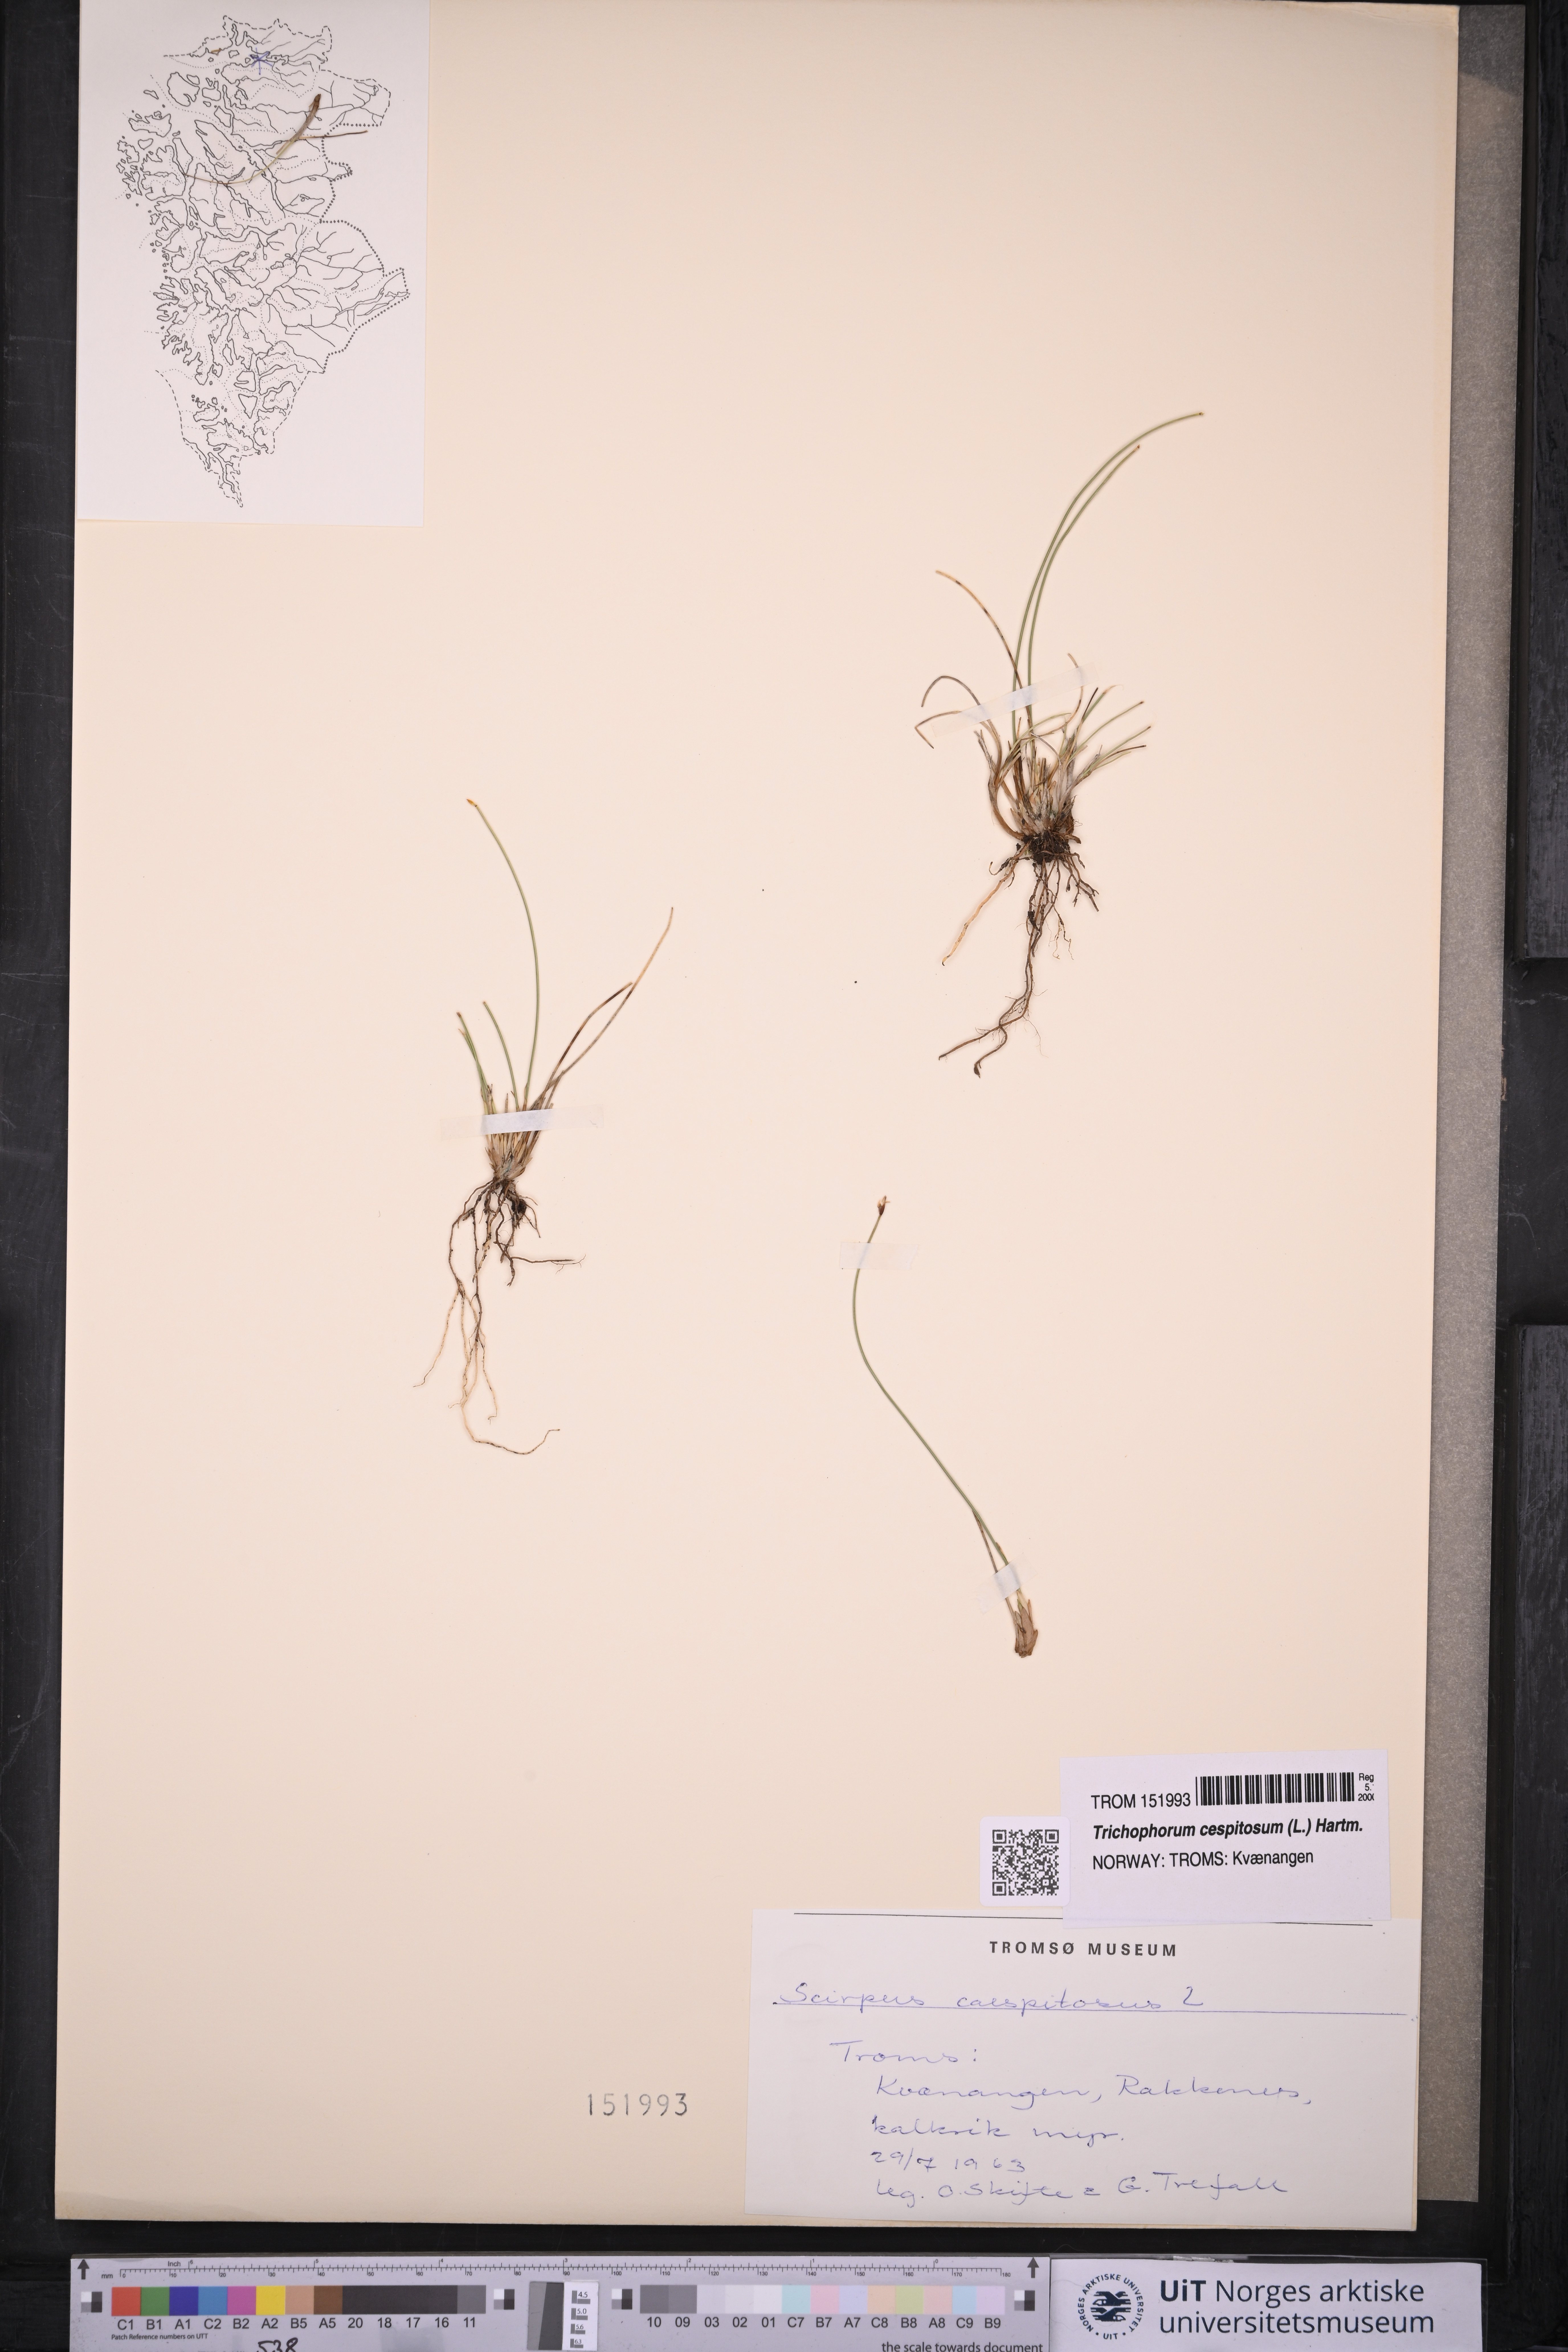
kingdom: Plantae
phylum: Tracheophyta
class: Liliopsida
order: Poales
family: Cyperaceae
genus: Trichophorum
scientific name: Trichophorum cespitosum
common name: Cespitose bulrush
